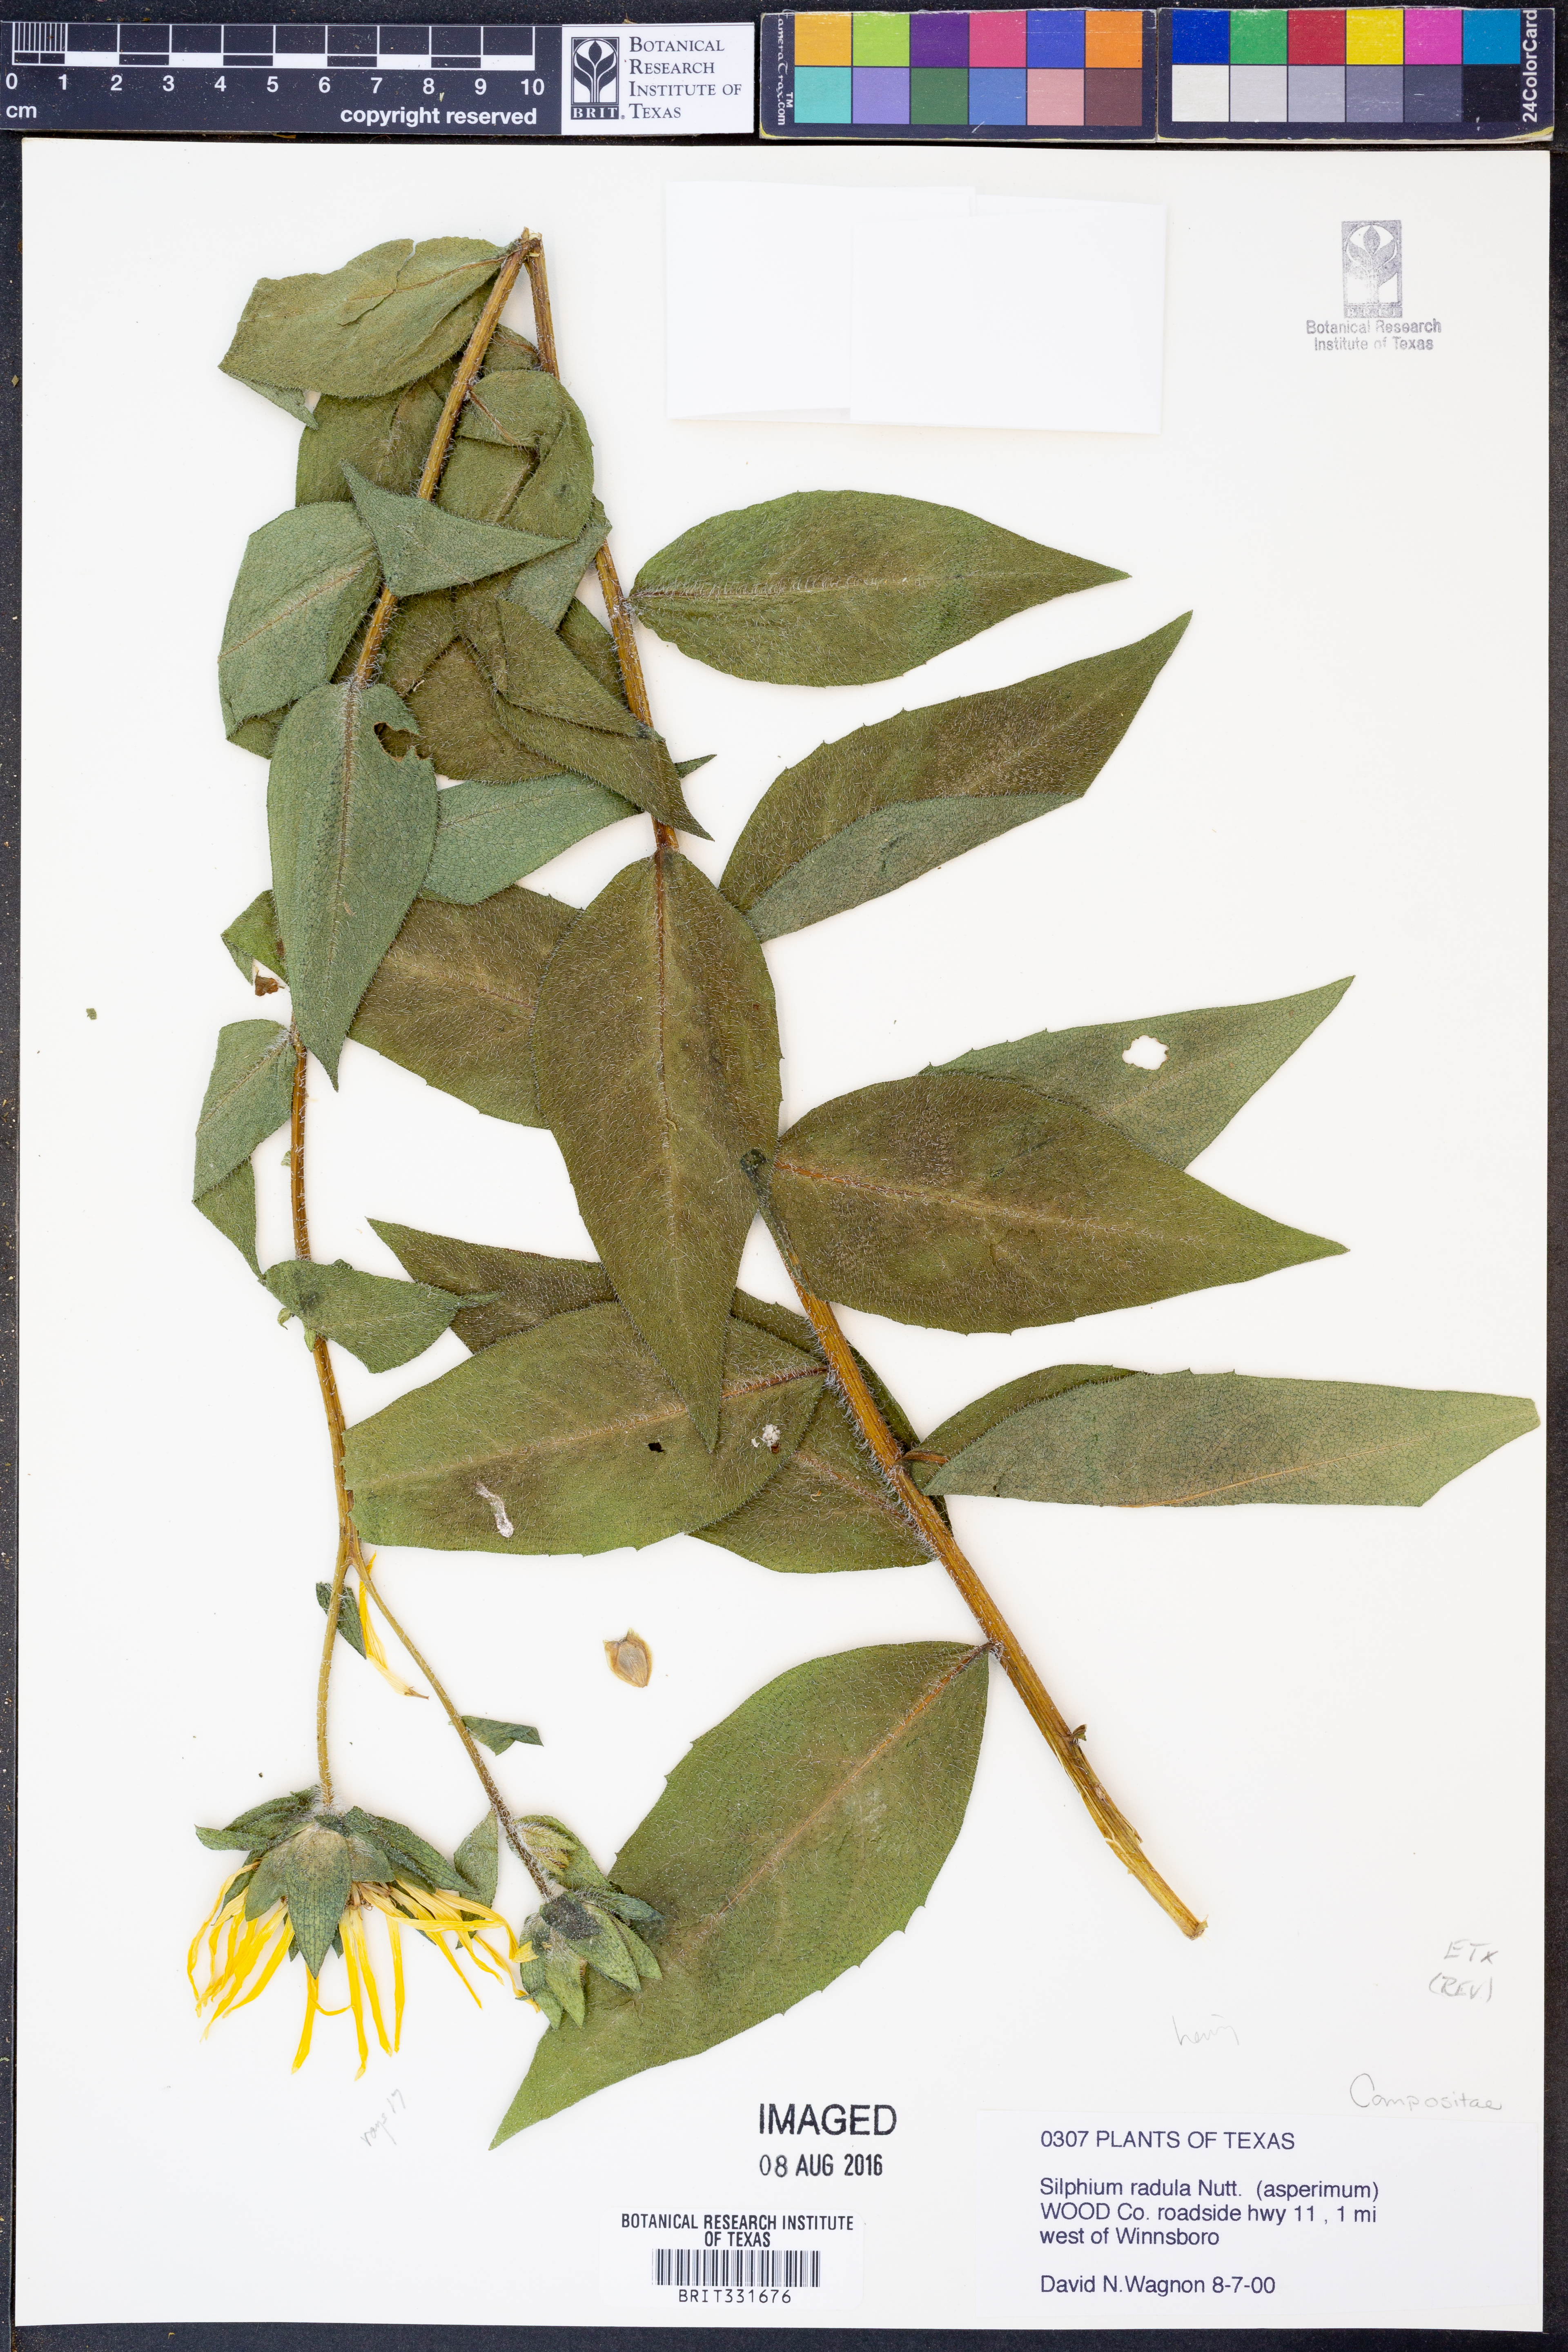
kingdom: Plantae
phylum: Tracheophyta
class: Magnoliopsida
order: Asterales
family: Asteraceae
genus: Silphium
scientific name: Silphium radula
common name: Roughleaf rosinweed
